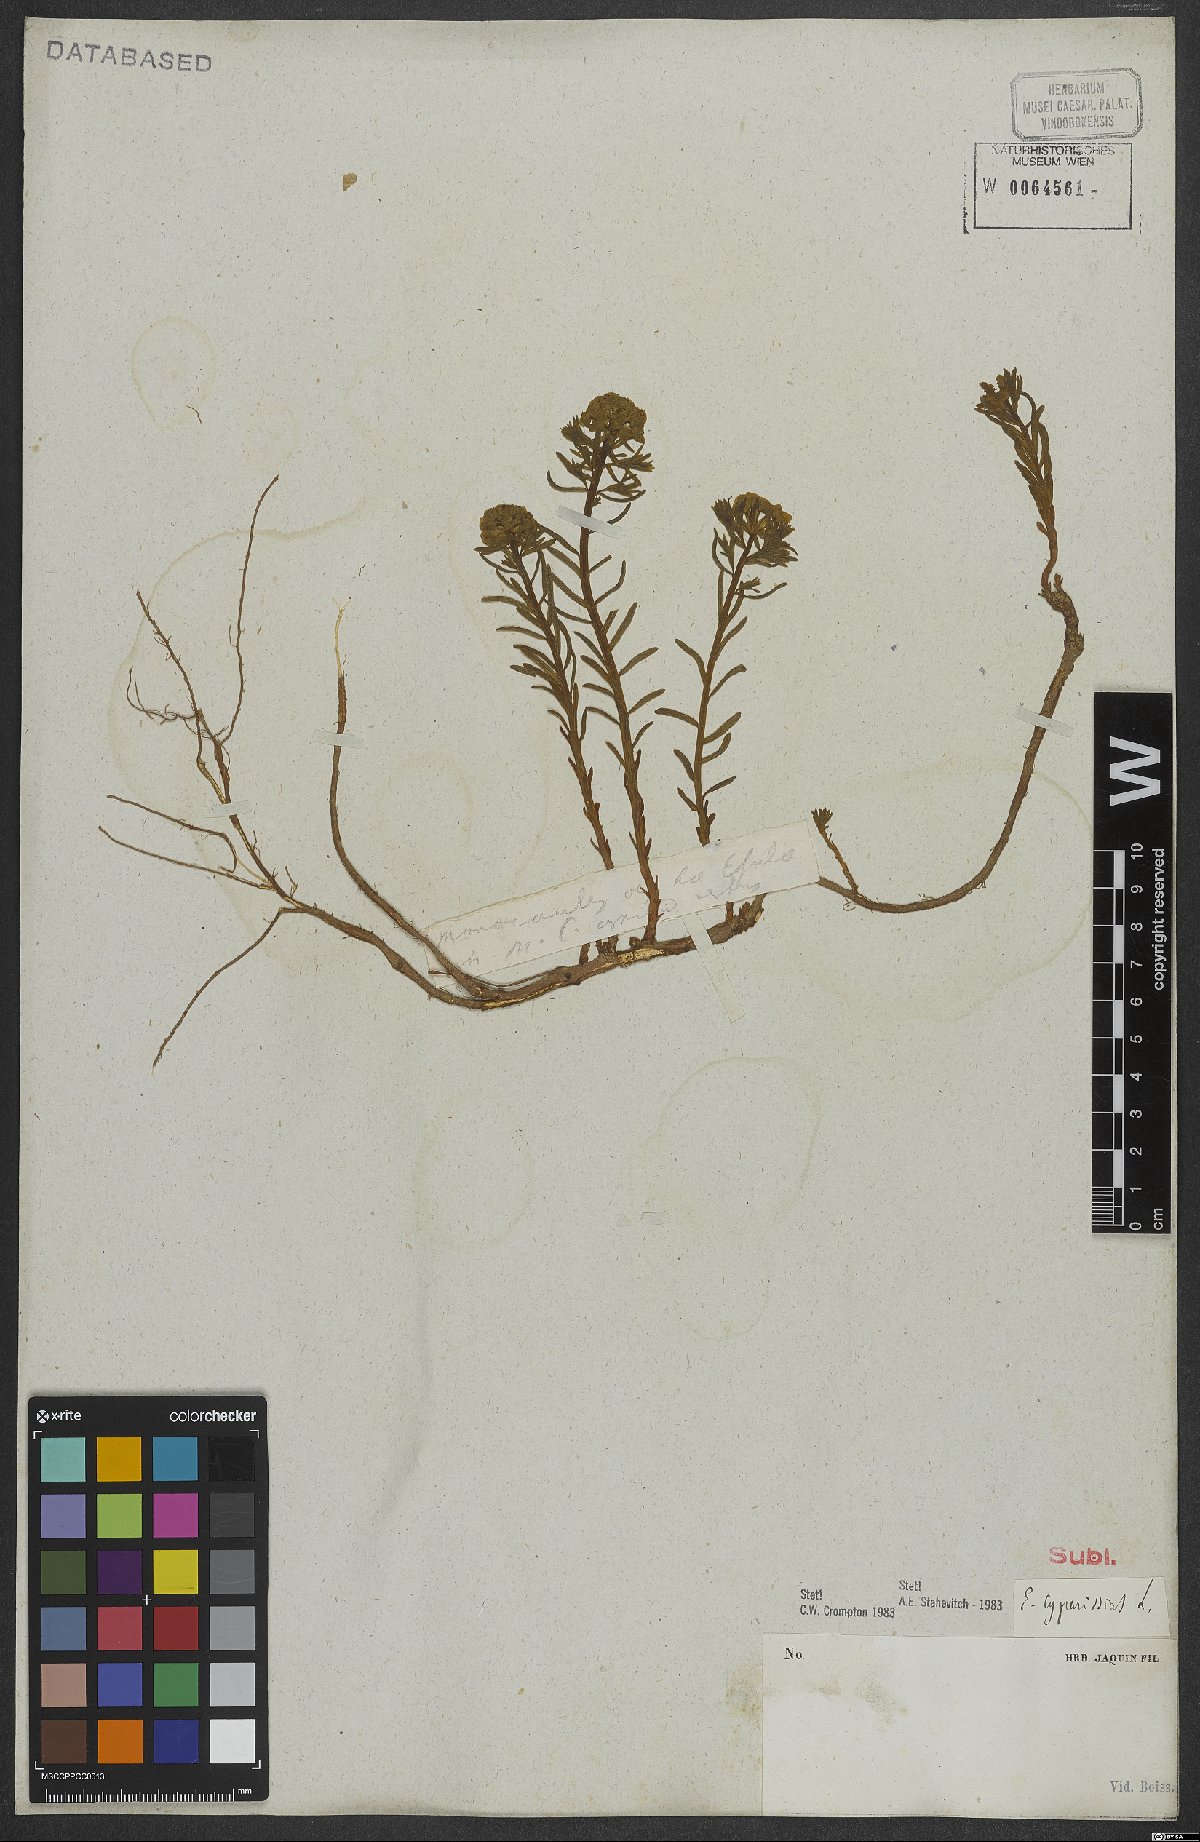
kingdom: Plantae
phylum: Tracheophyta
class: Magnoliopsida
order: Malpighiales
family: Euphorbiaceae
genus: Euphorbia
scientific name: Euphorbia cyparissias
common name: Cypress spurge
